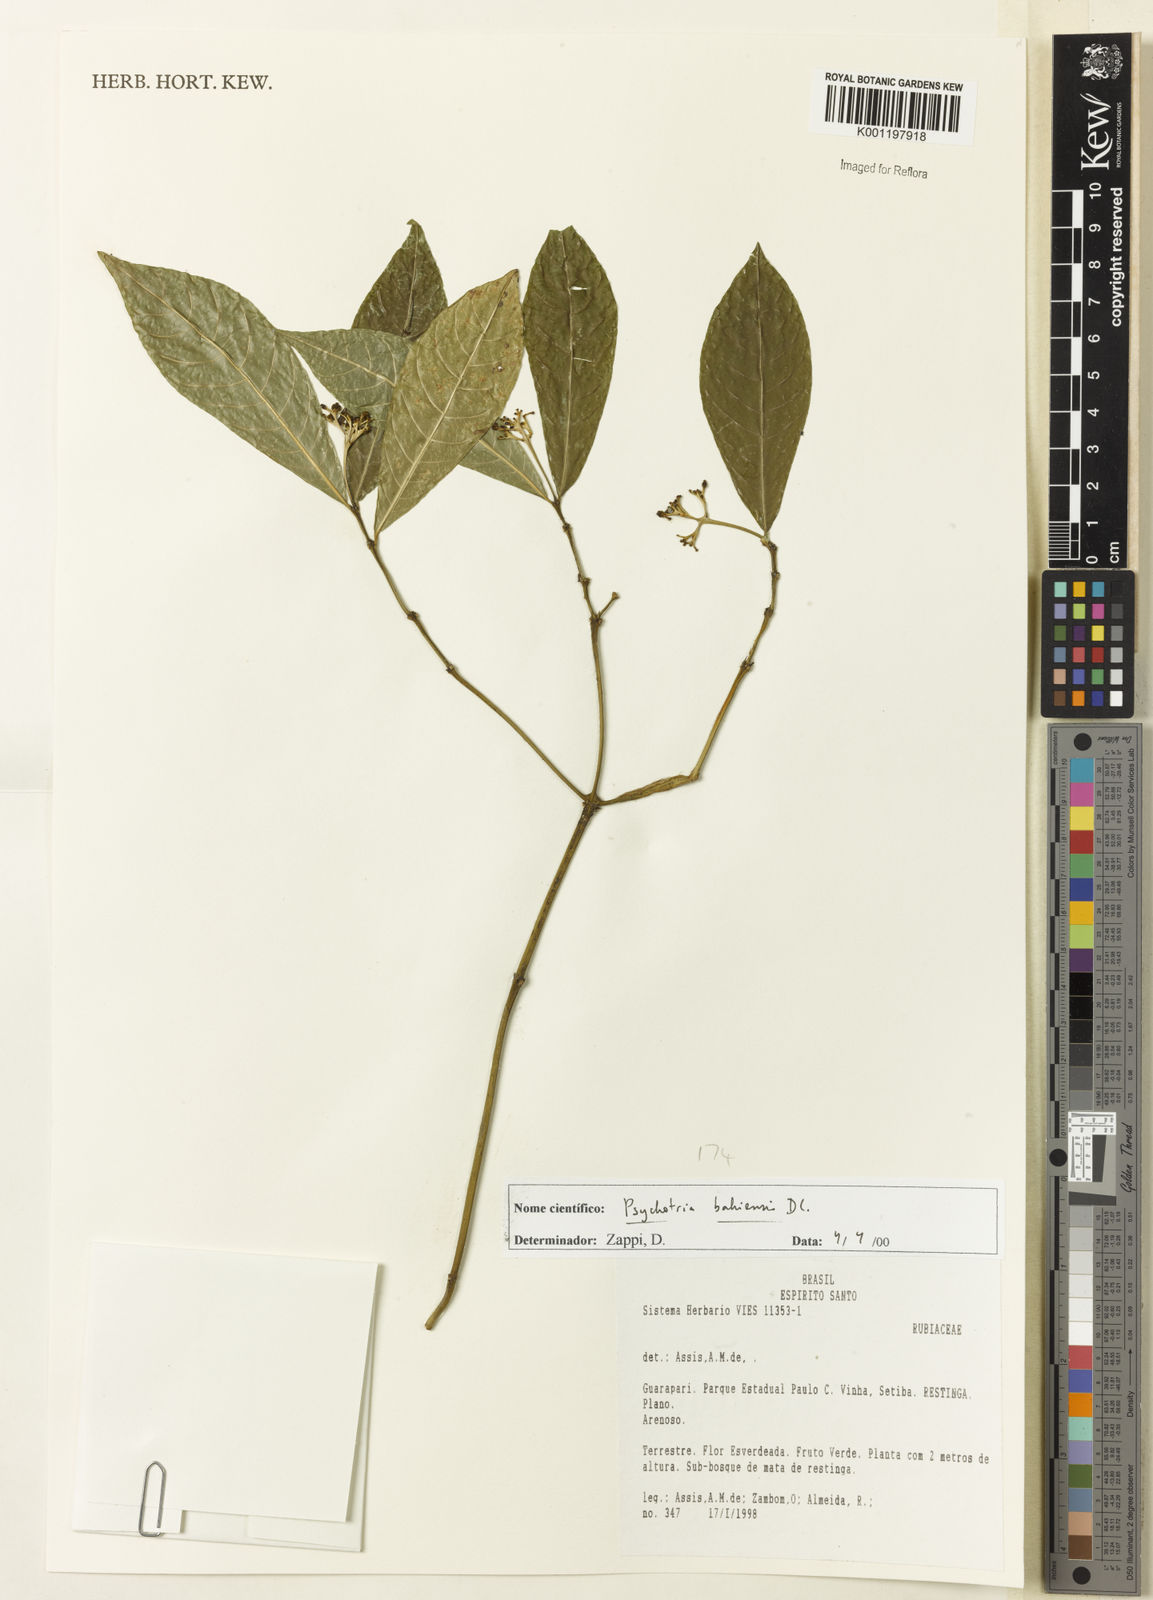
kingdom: Plantae
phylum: Tracheophyta
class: Magnoliopsida
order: Gentianales
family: Rubiaceae
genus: Psychotria
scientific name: Psychotria bahiensis
